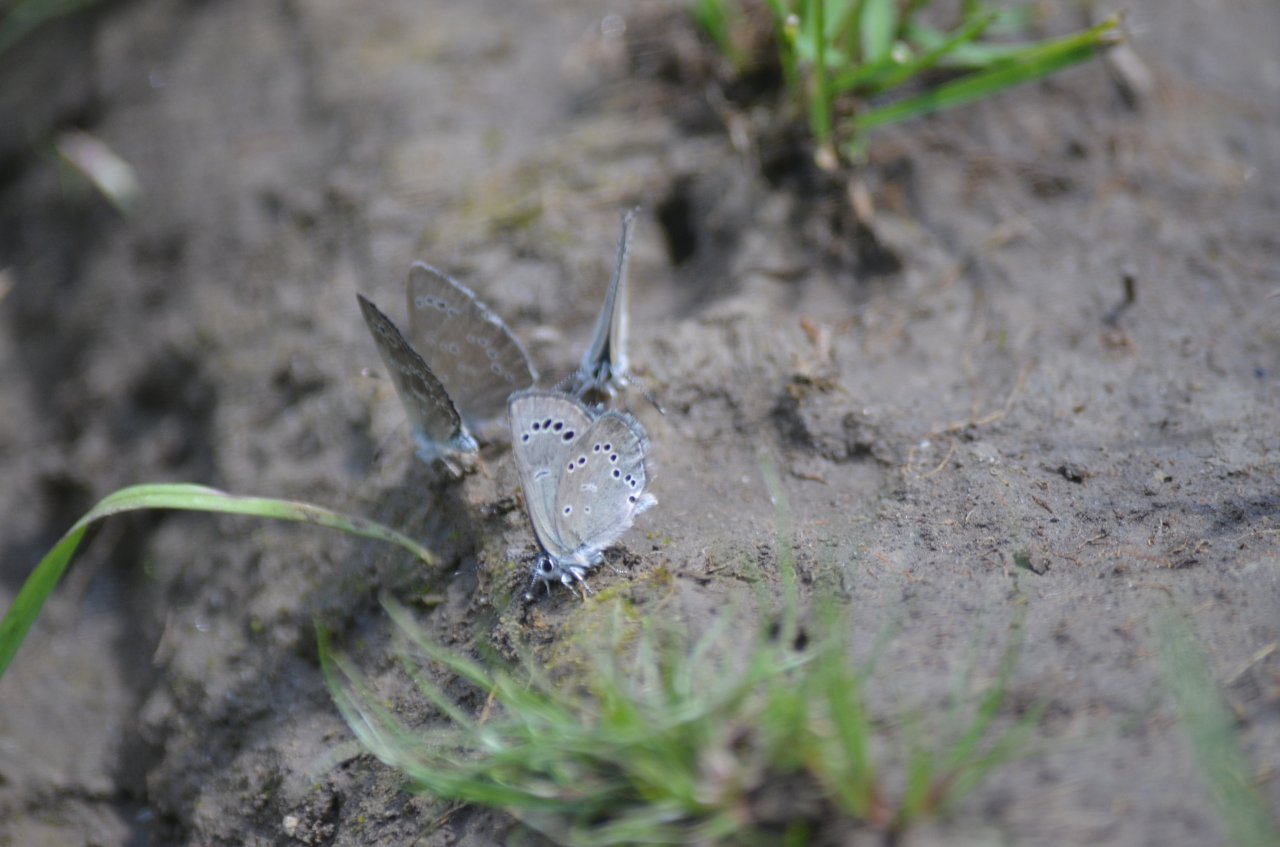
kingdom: Animalia
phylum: Arthropoda
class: Insecta
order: Lepidoptera
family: Lycaenidae
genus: Glaucopsyche
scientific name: Glaucopsyche lygdamus
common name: Silvery Blue
